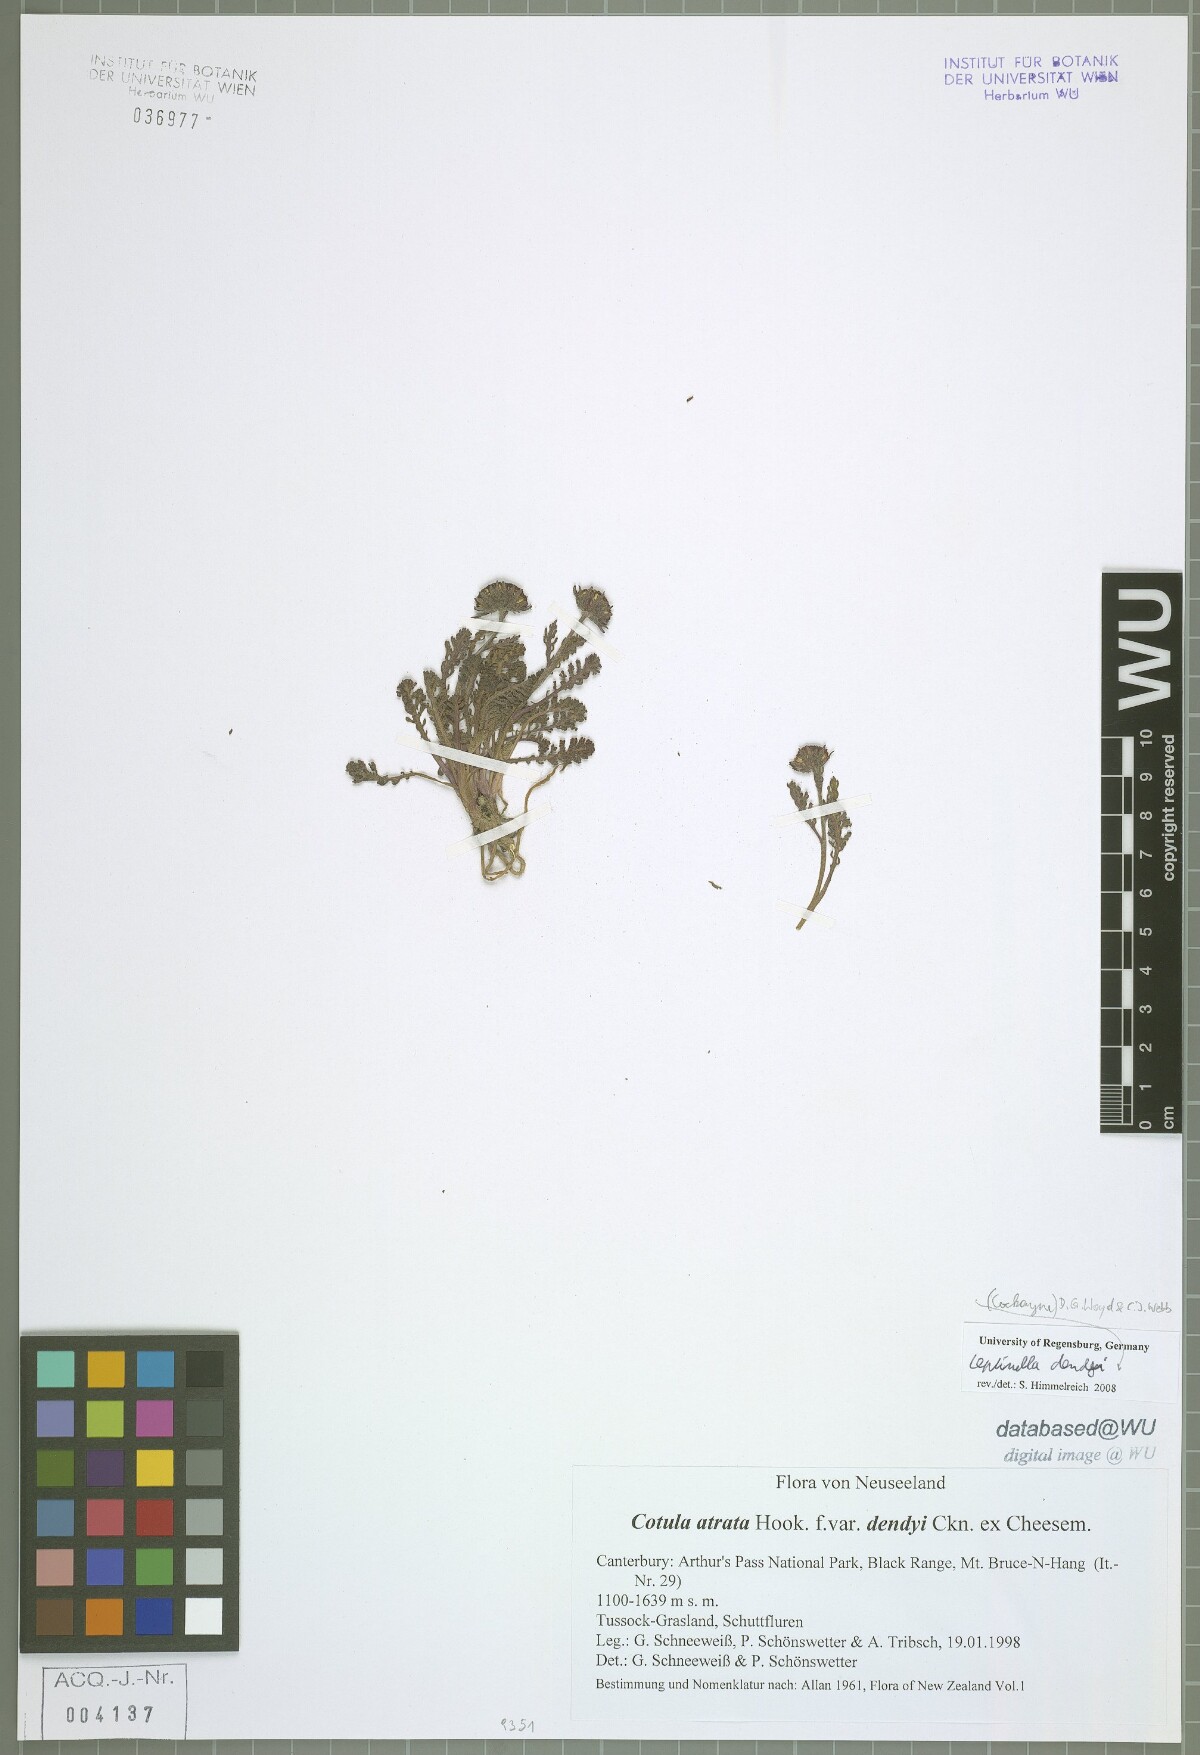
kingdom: Plantae
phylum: Tracheophyta
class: Magnoliopsida
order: Asterales
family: Asteraceae
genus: Leptinella
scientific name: Leptinella dendyi
